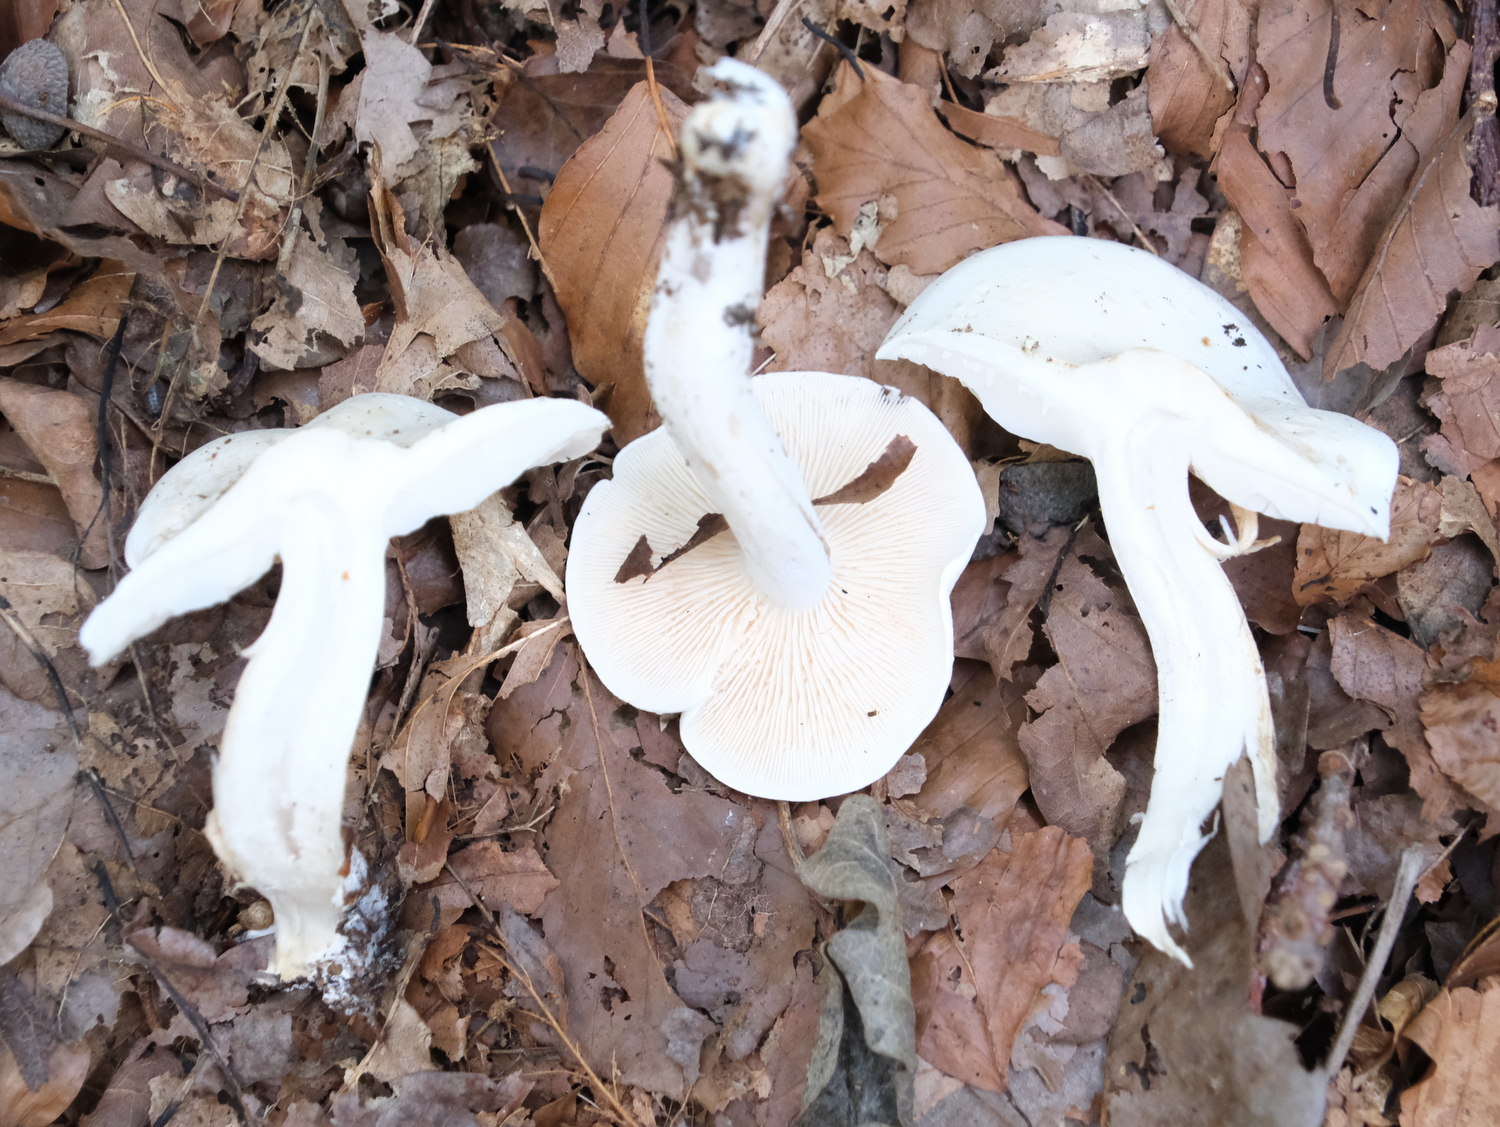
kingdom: Fungi
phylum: Basidiomycota
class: Agaricomycetes
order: Agaricales
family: Tricholomataceae
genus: Tricholoma
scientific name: Tricholoma lascivum
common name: stinkende ridderhat
